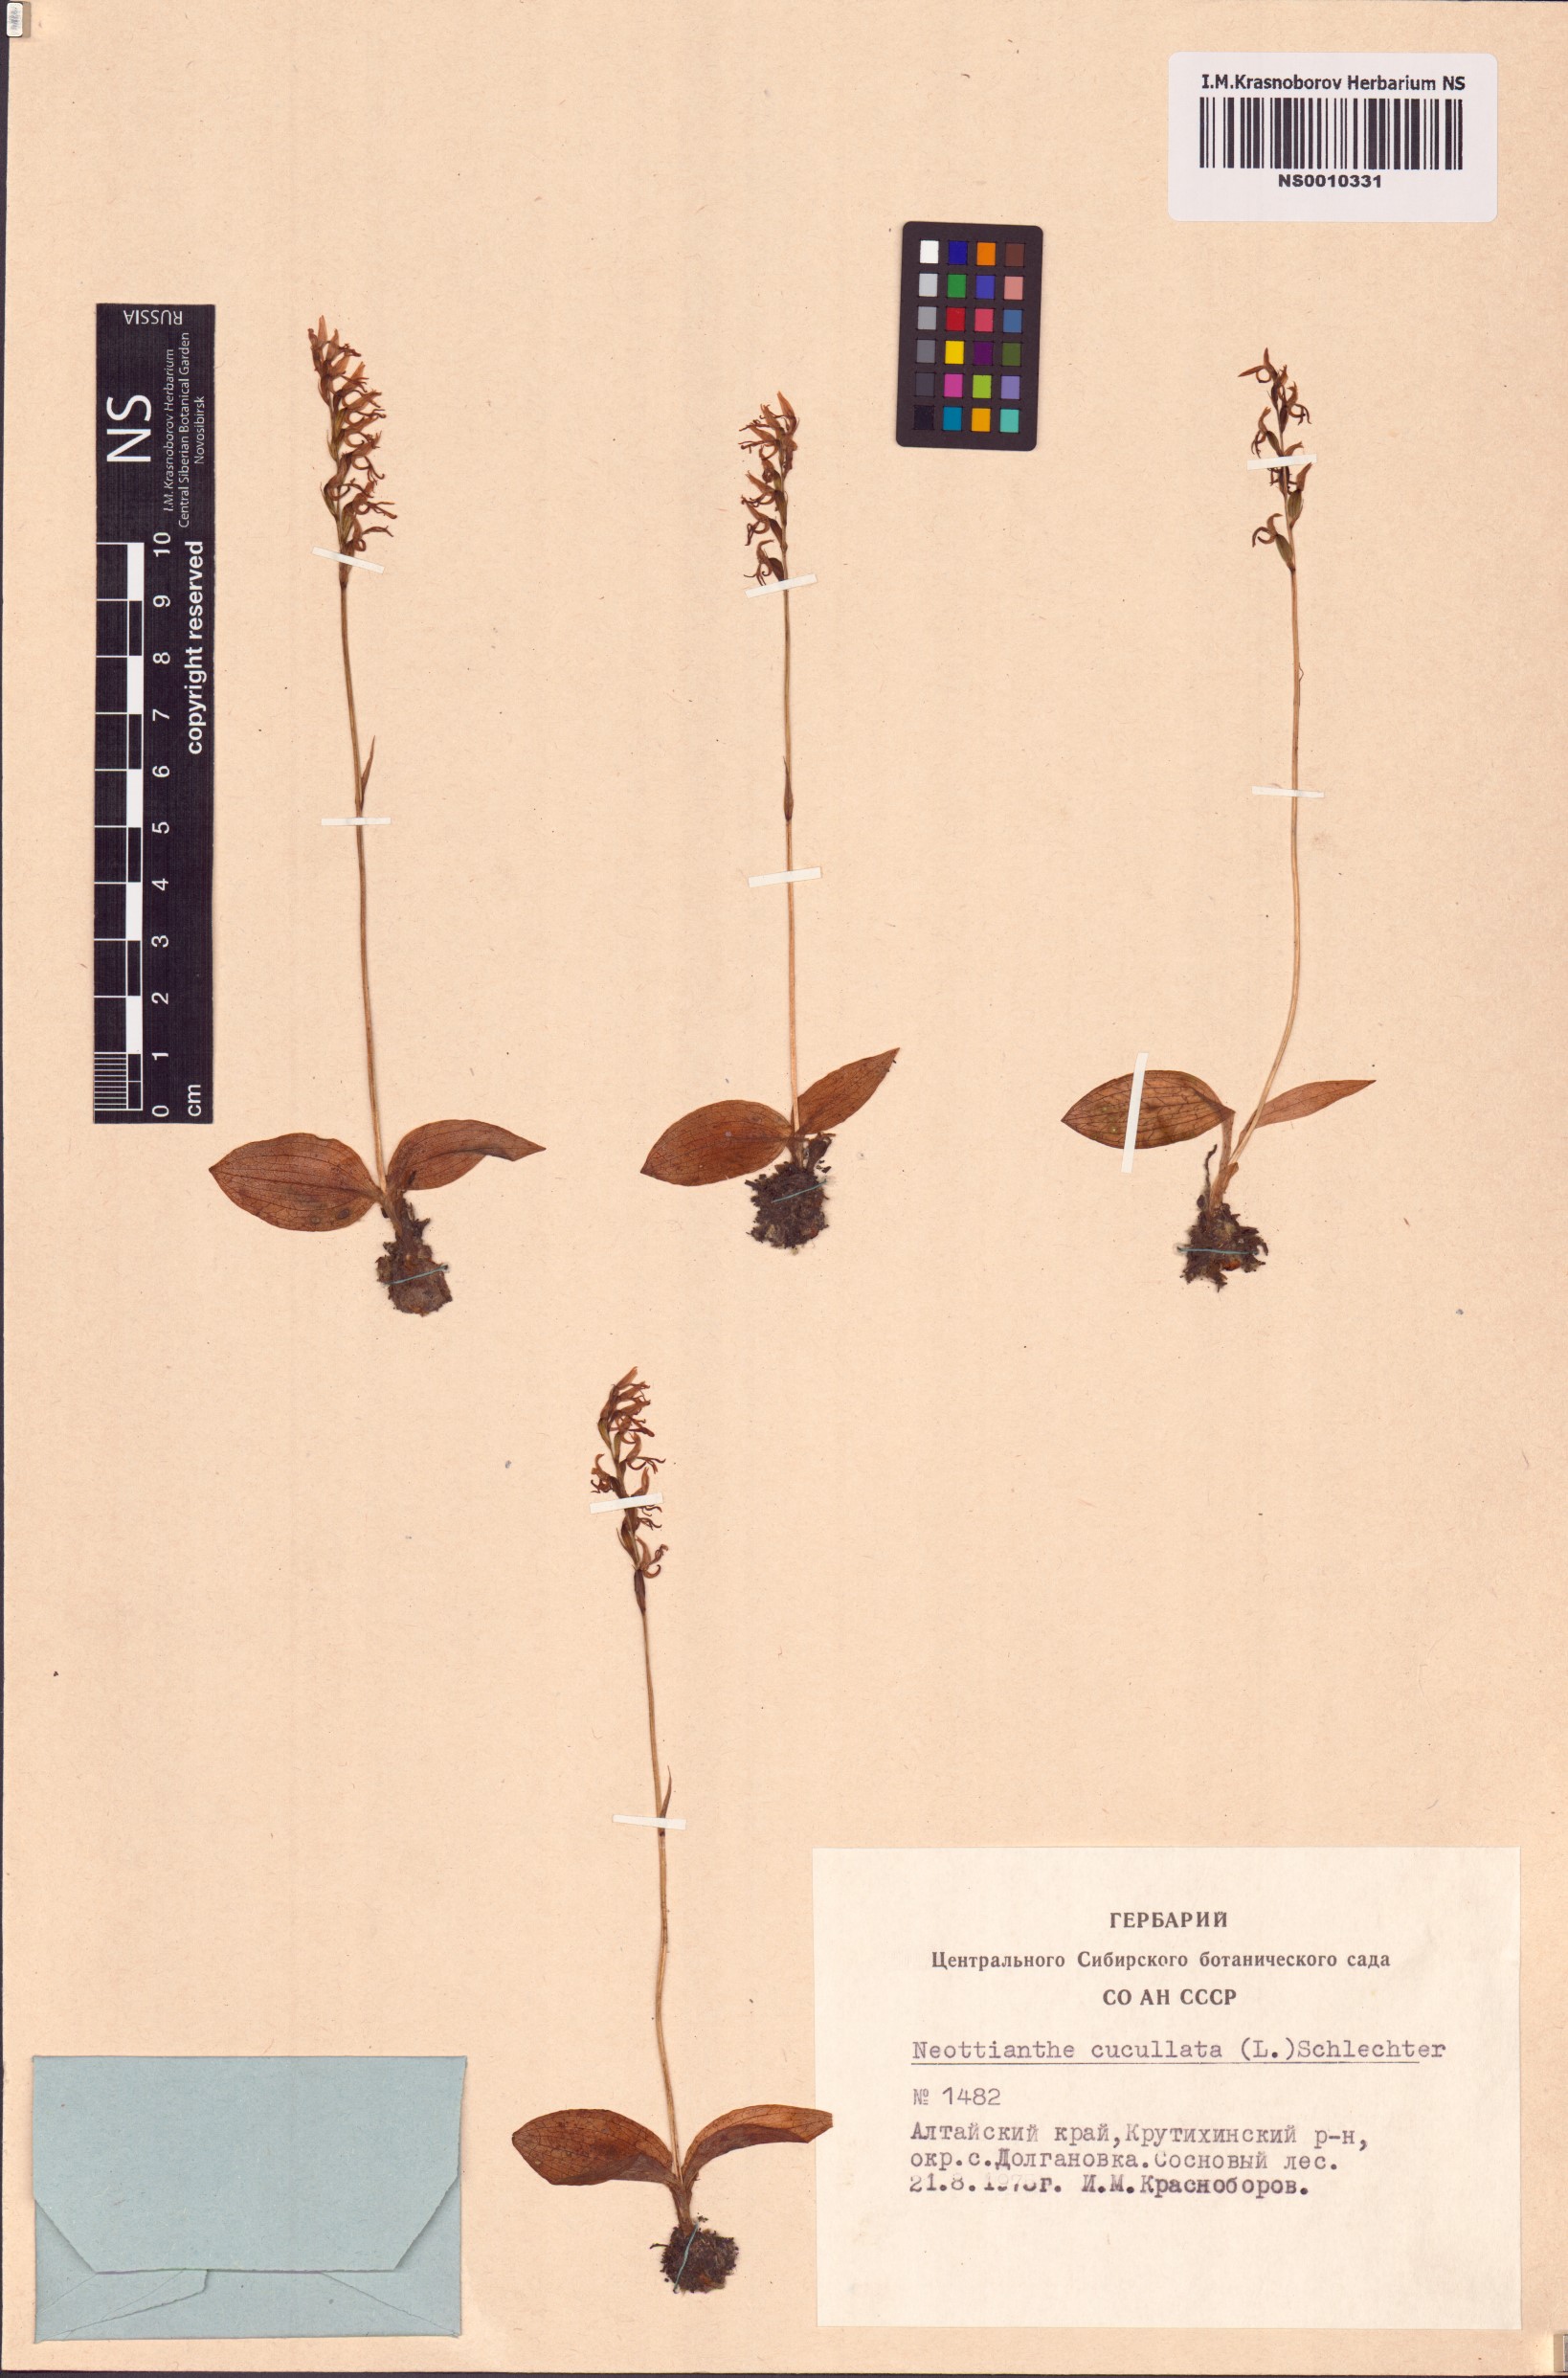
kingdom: Plantae
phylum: Tracheophyta
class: Liliopsida
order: Asparagales
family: Orchidaceae
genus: Hemipilia
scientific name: Hemipilia cucullata
